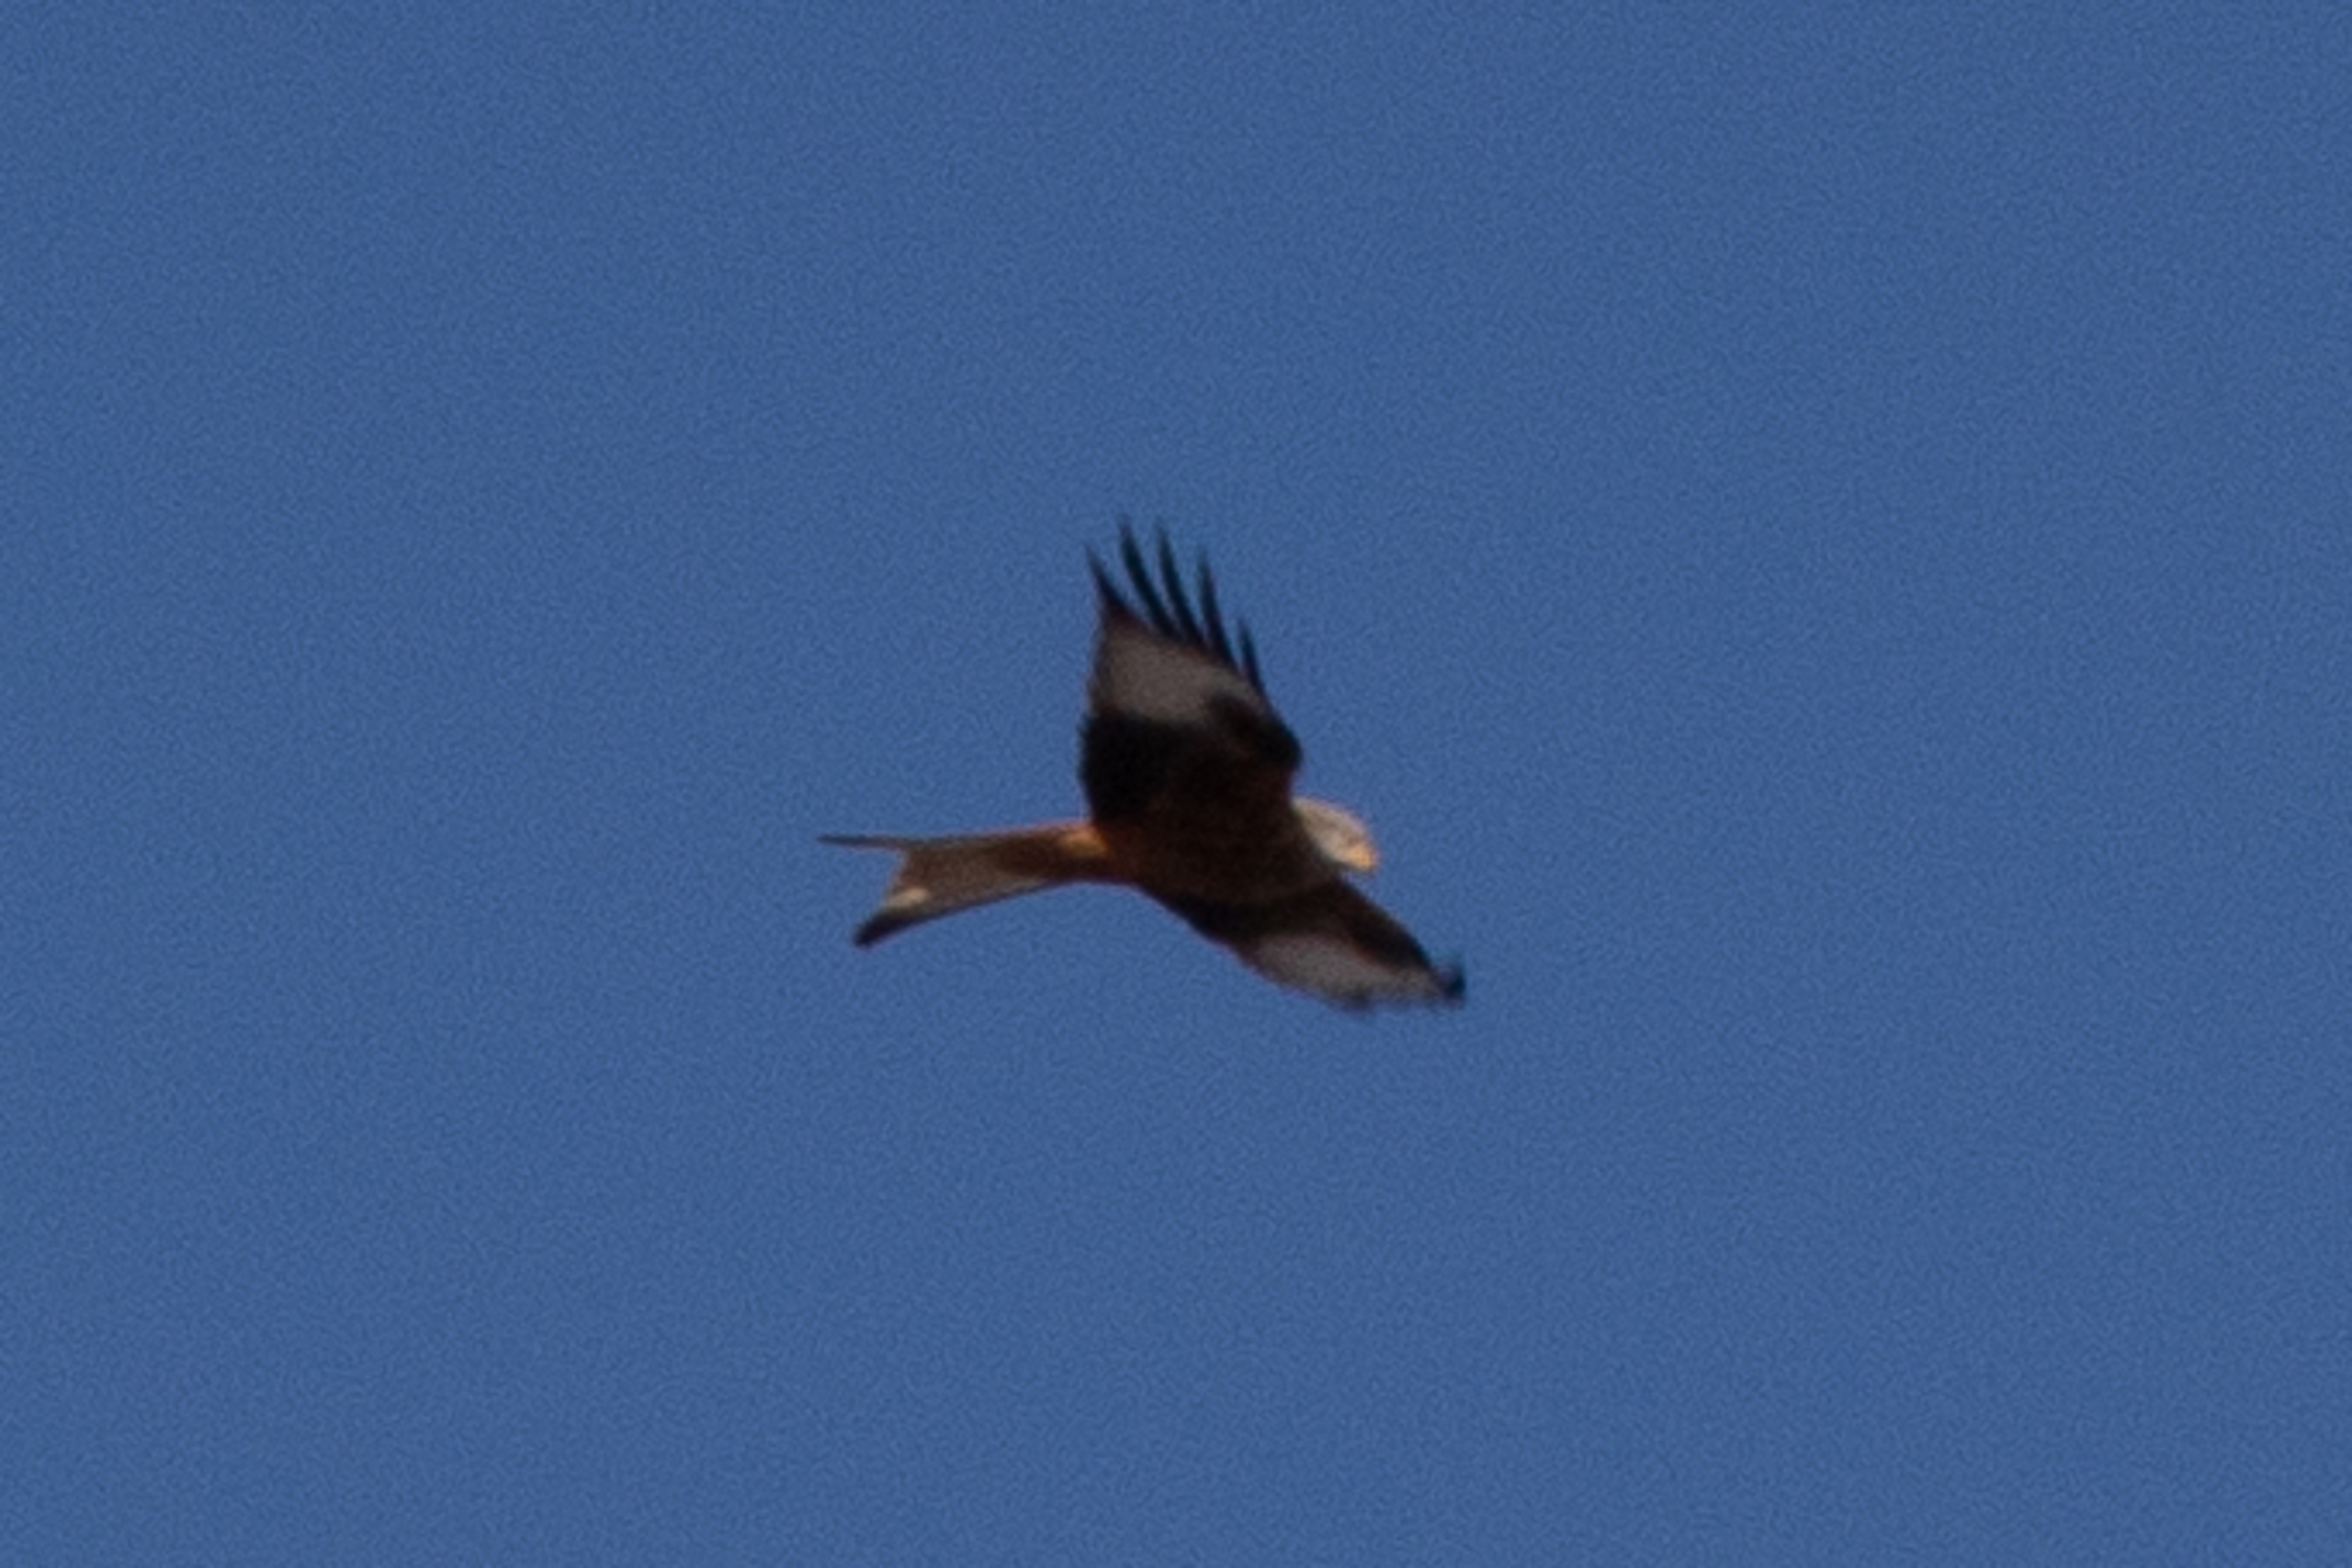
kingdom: Animalia
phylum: Chordata
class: Aves
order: Accipitriformes
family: Accipitridae
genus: Milvus
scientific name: Milvus milvus
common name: Rød glente
